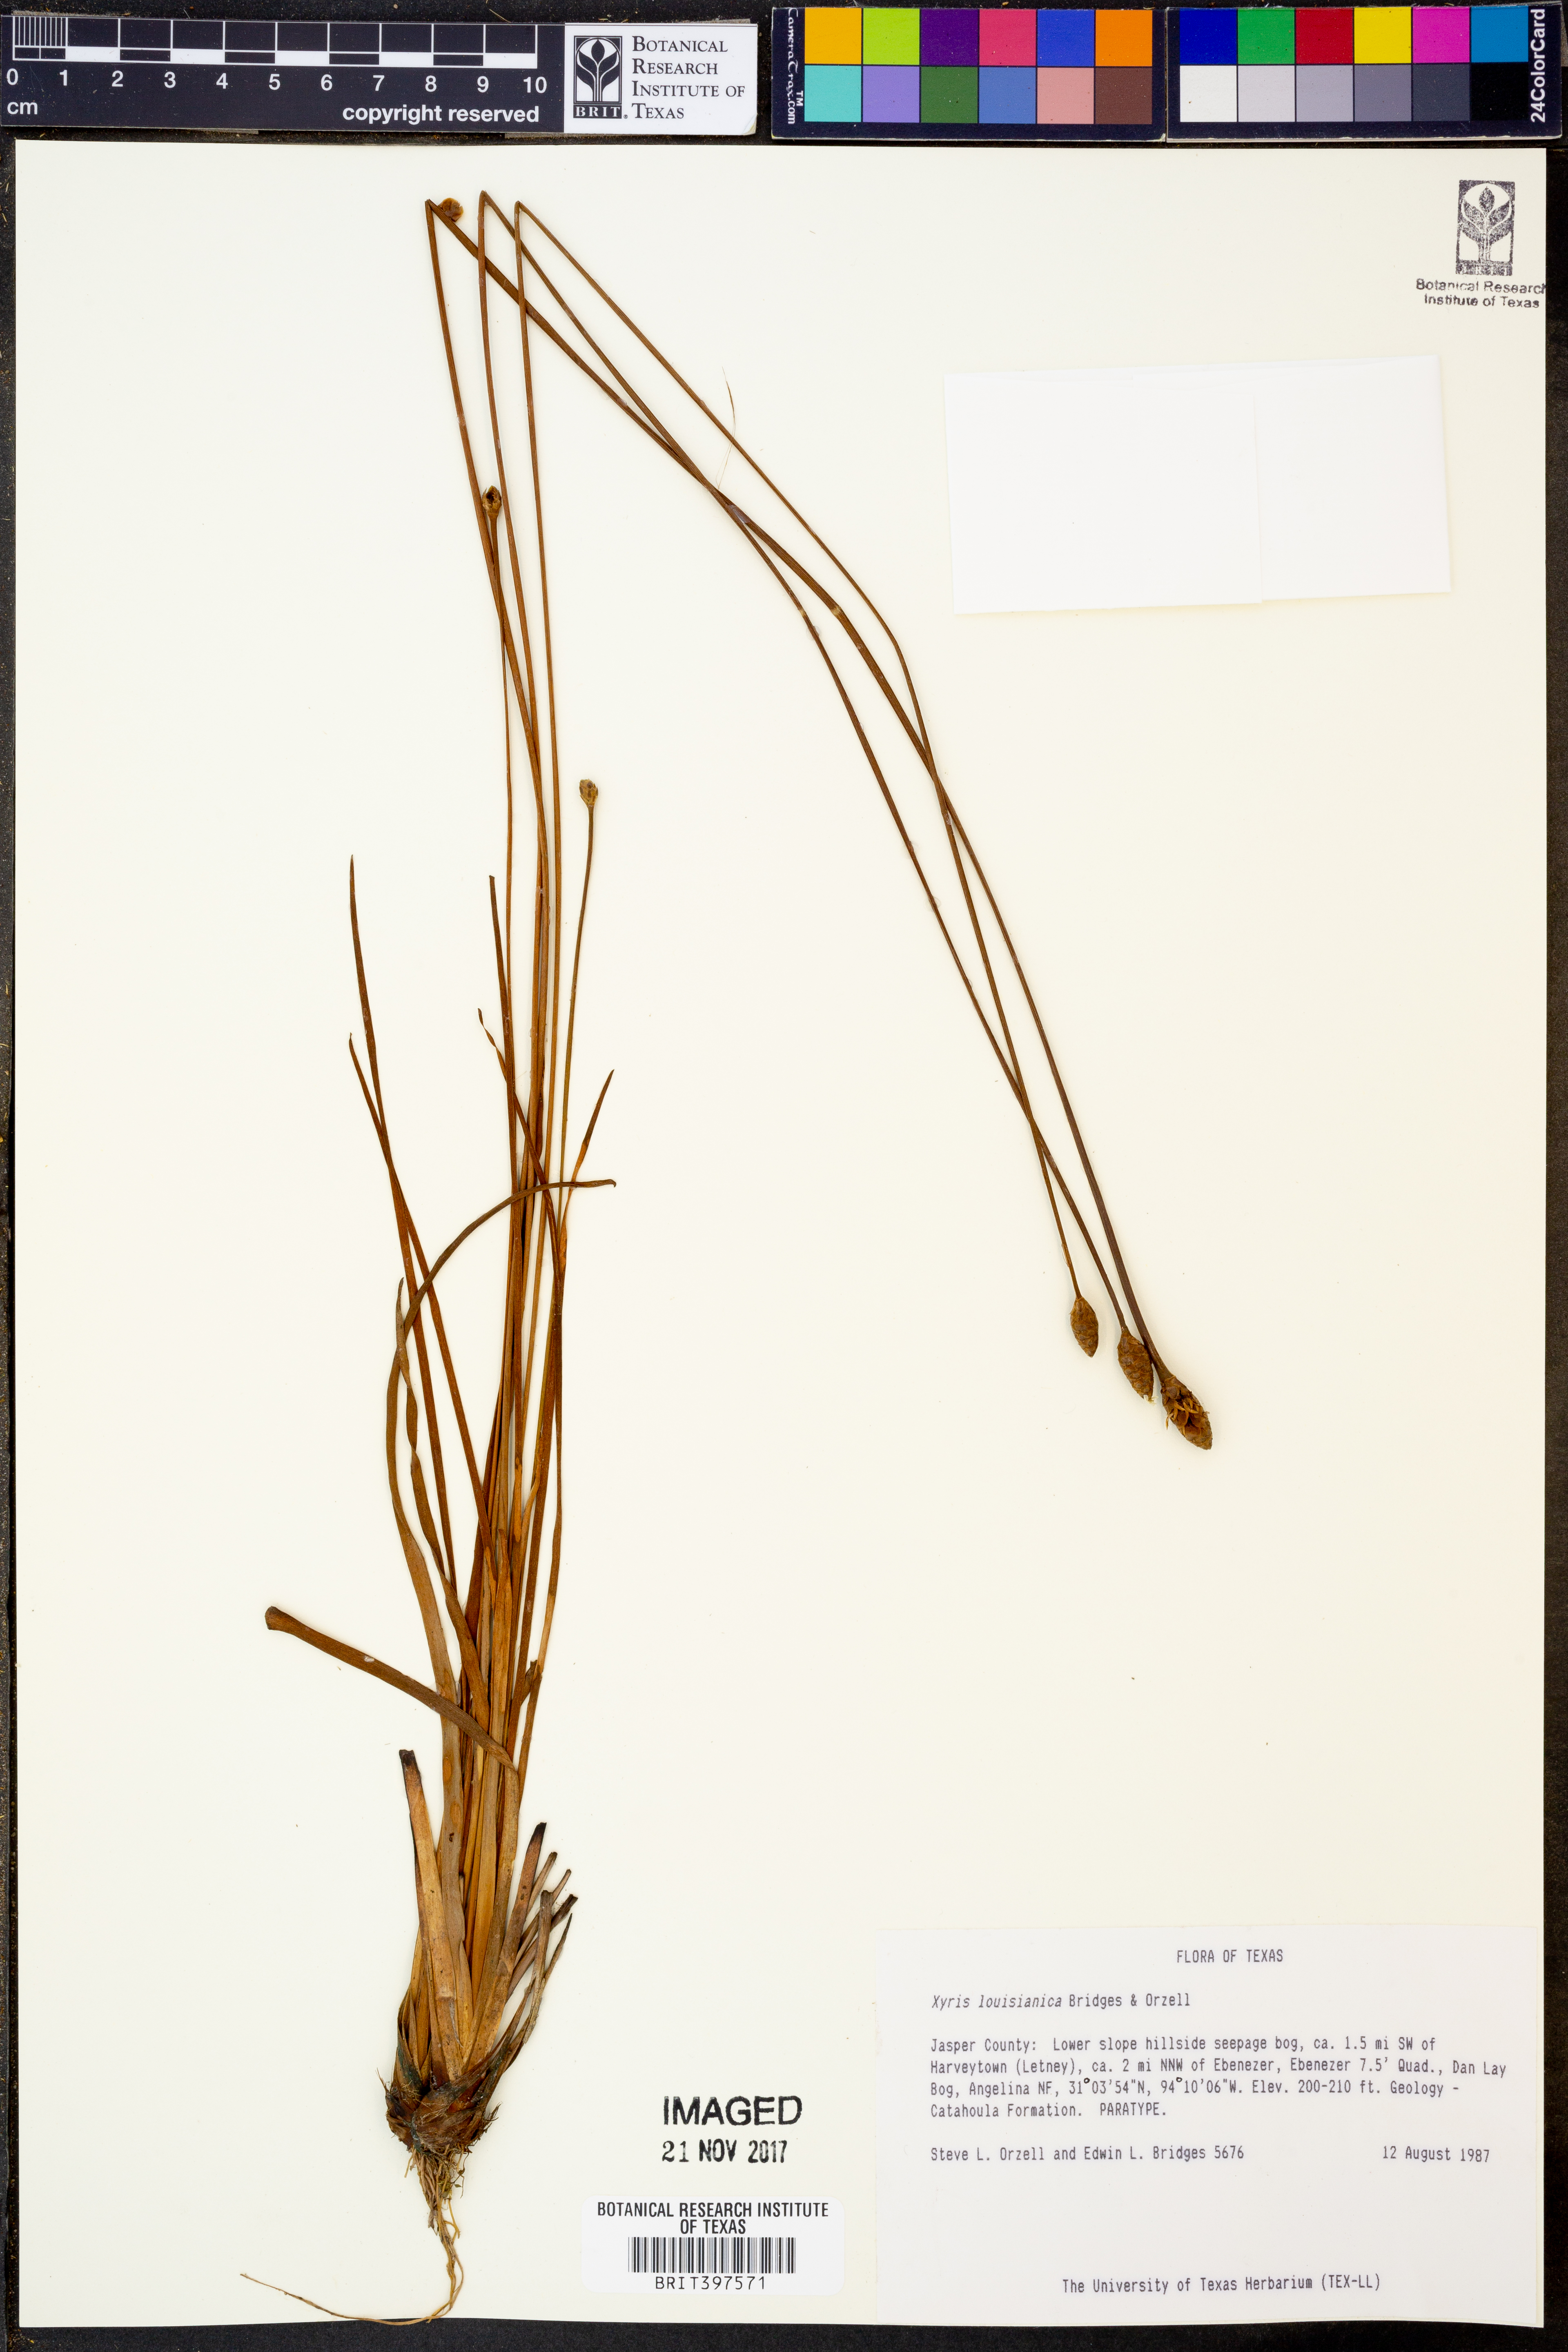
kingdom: Plantae
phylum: Tracheophyta
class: Liliopsida
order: Poales
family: Xyridaceae
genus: Xyris
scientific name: Xyris stricta
